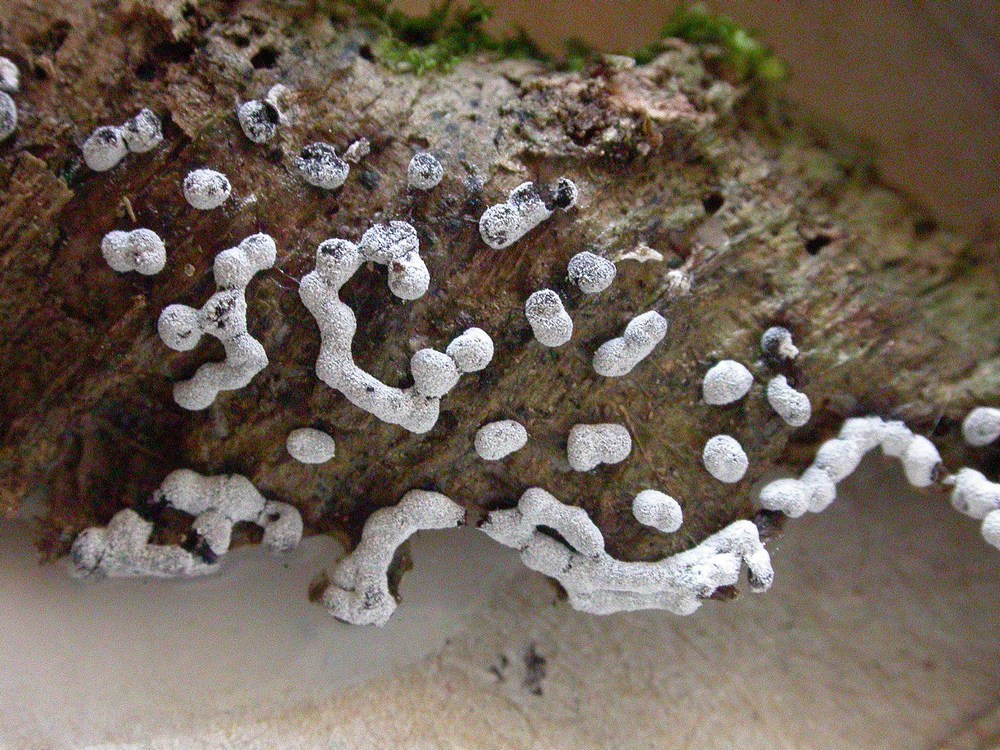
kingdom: Protozoa
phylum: Mycetozoa
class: Myxomycetes
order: Physarales
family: Didymiaceae
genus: Didymium
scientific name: Didymium melanospermum
